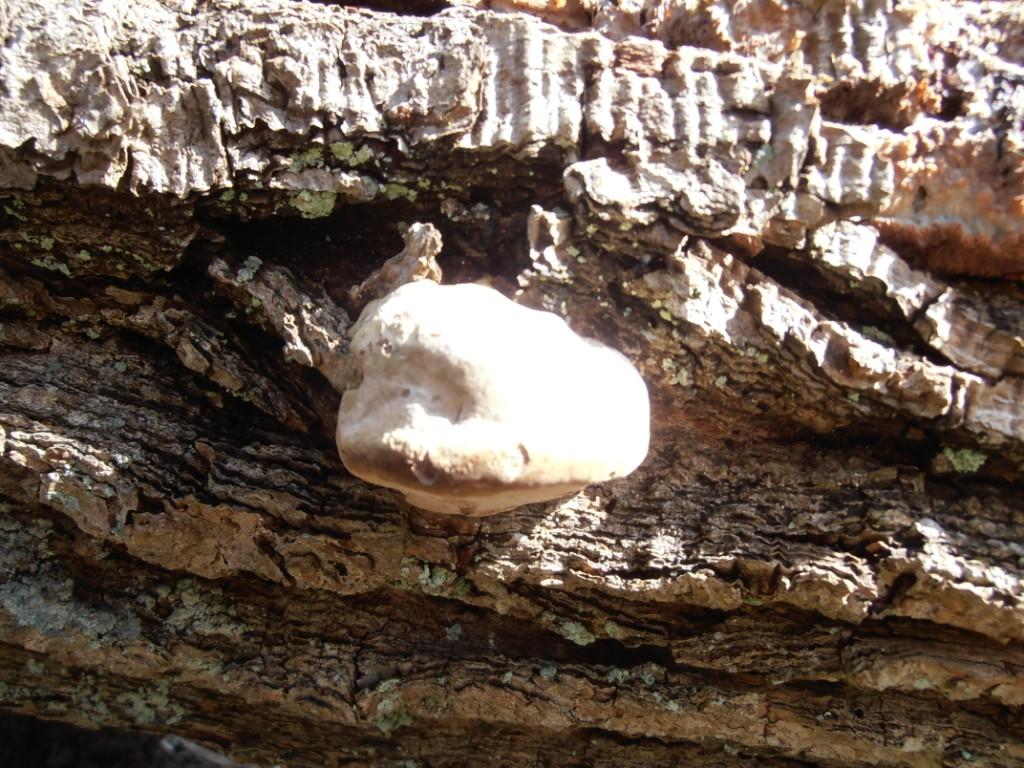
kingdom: Fungi
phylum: Basidiomycota
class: Agaricomycetes
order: Polyporales
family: Polyporaceae
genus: Fomes
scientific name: Fomes fomentarius
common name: tøndersvamp
